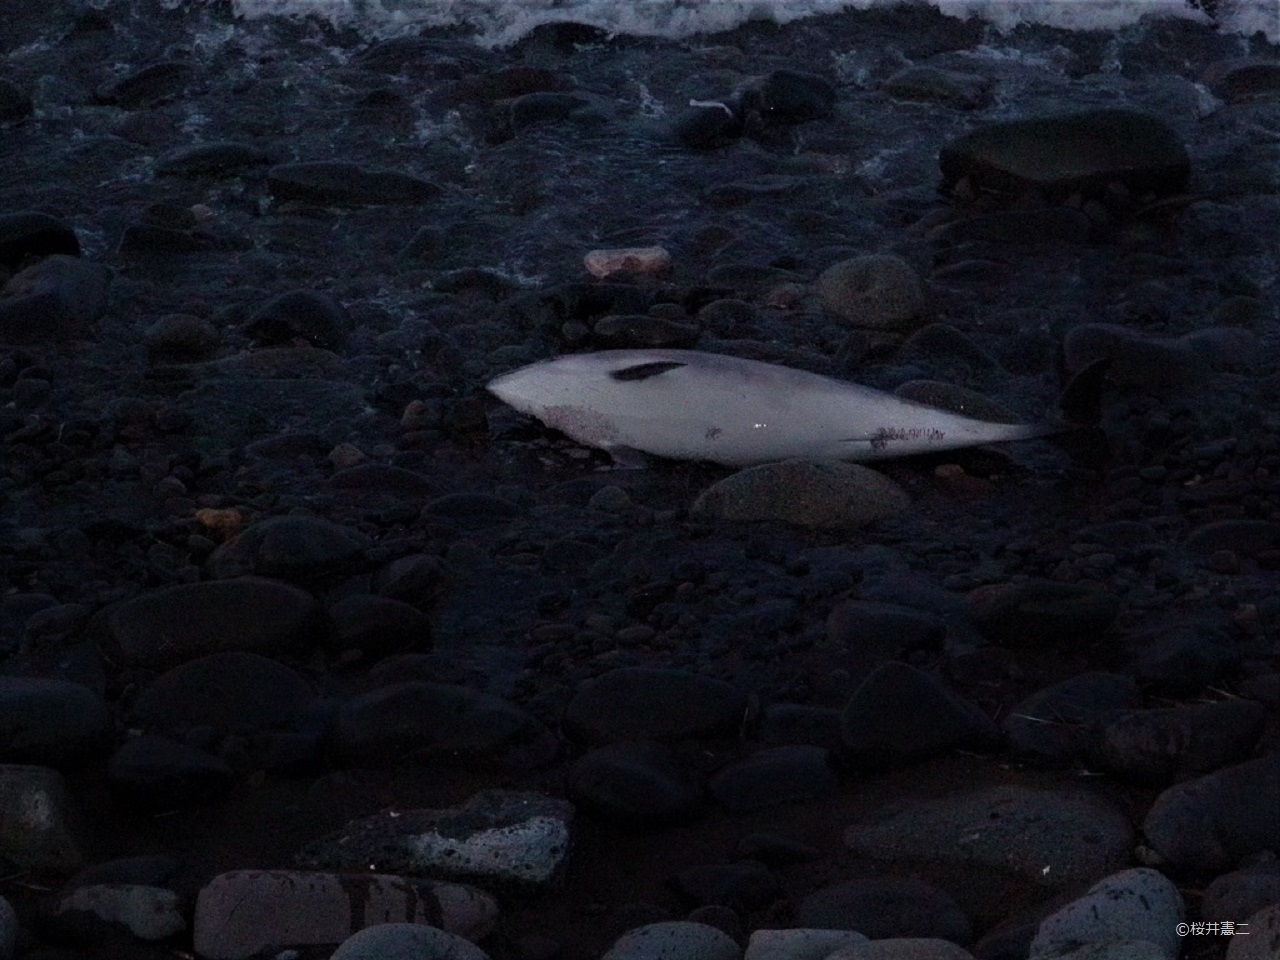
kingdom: Animalia
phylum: Chordata
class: Mammalia
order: Cetacea
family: Phocoenidae
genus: Phocoena
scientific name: Phocoena phocoena
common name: Harbour porpoise
